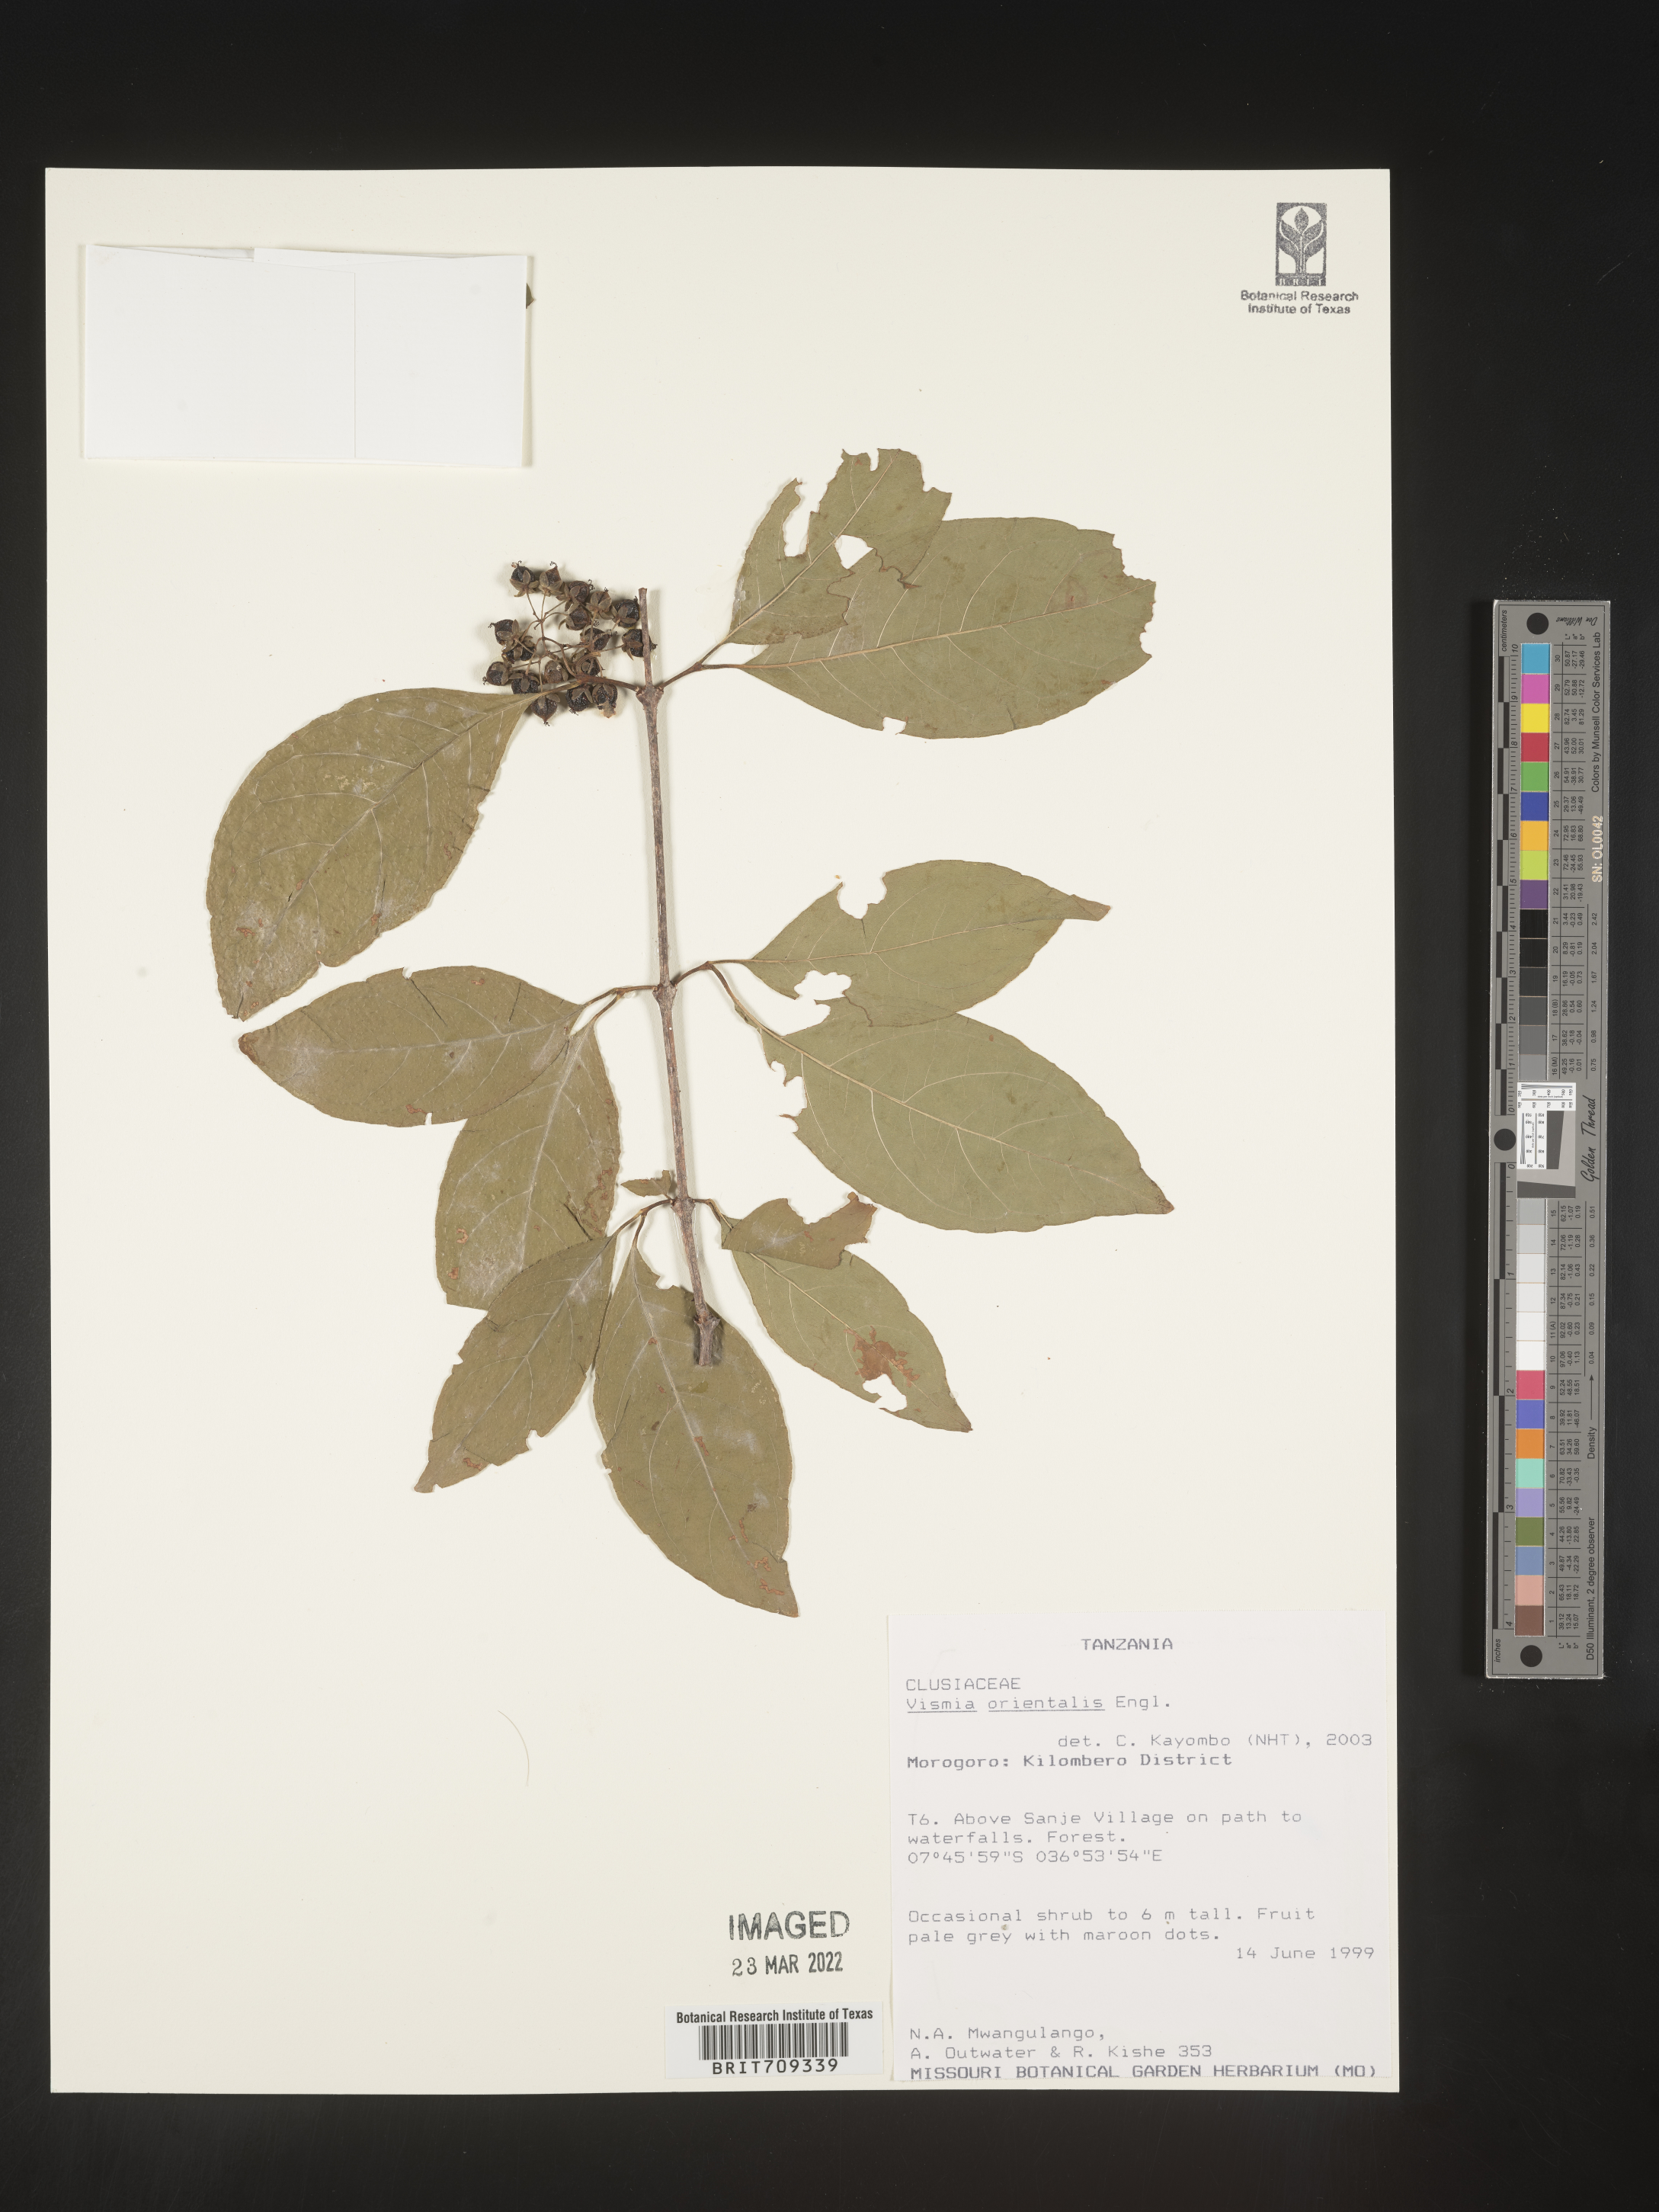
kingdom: Plantae
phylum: Tracheophyta
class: Magnoliopsida
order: Malpighiales
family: Hypericaceae
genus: Vismia
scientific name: Vismia
